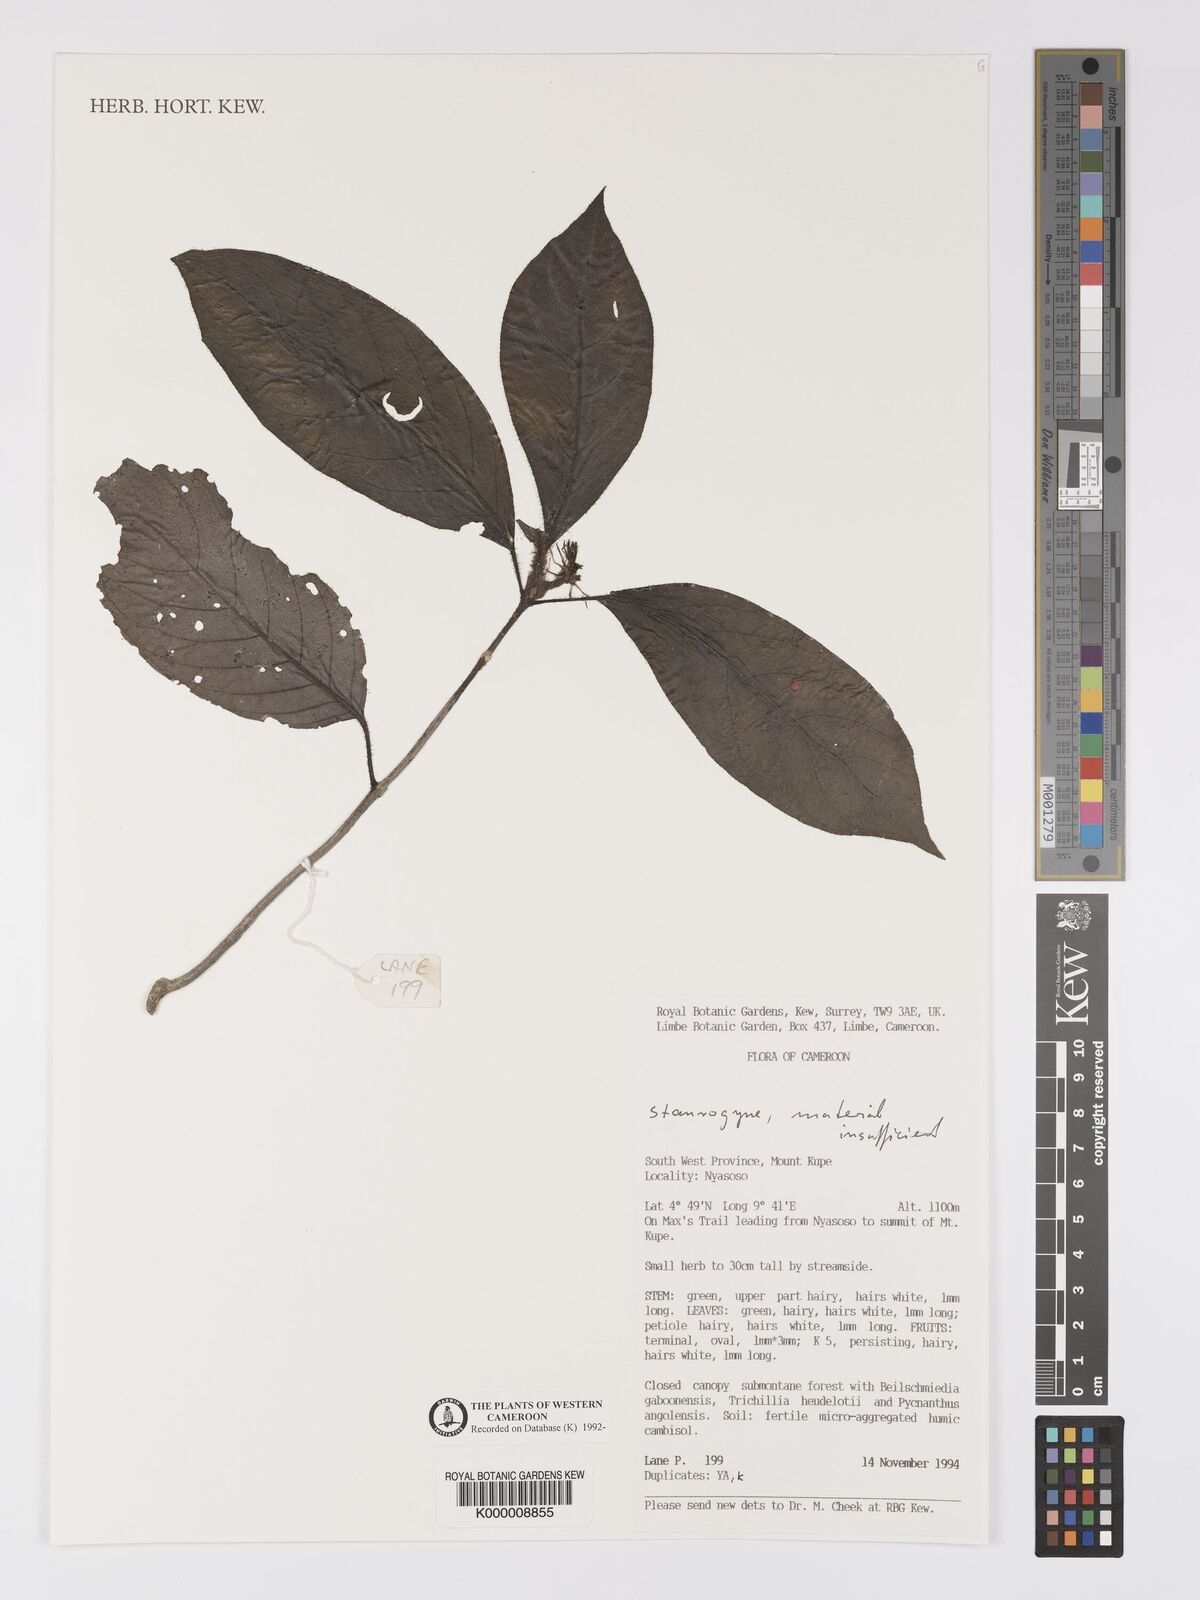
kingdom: Plantae
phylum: Tracheophyta
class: Magnoliopsida
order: Lamiales
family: Acanthaceae
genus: Staurogyne
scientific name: Staurogyne
